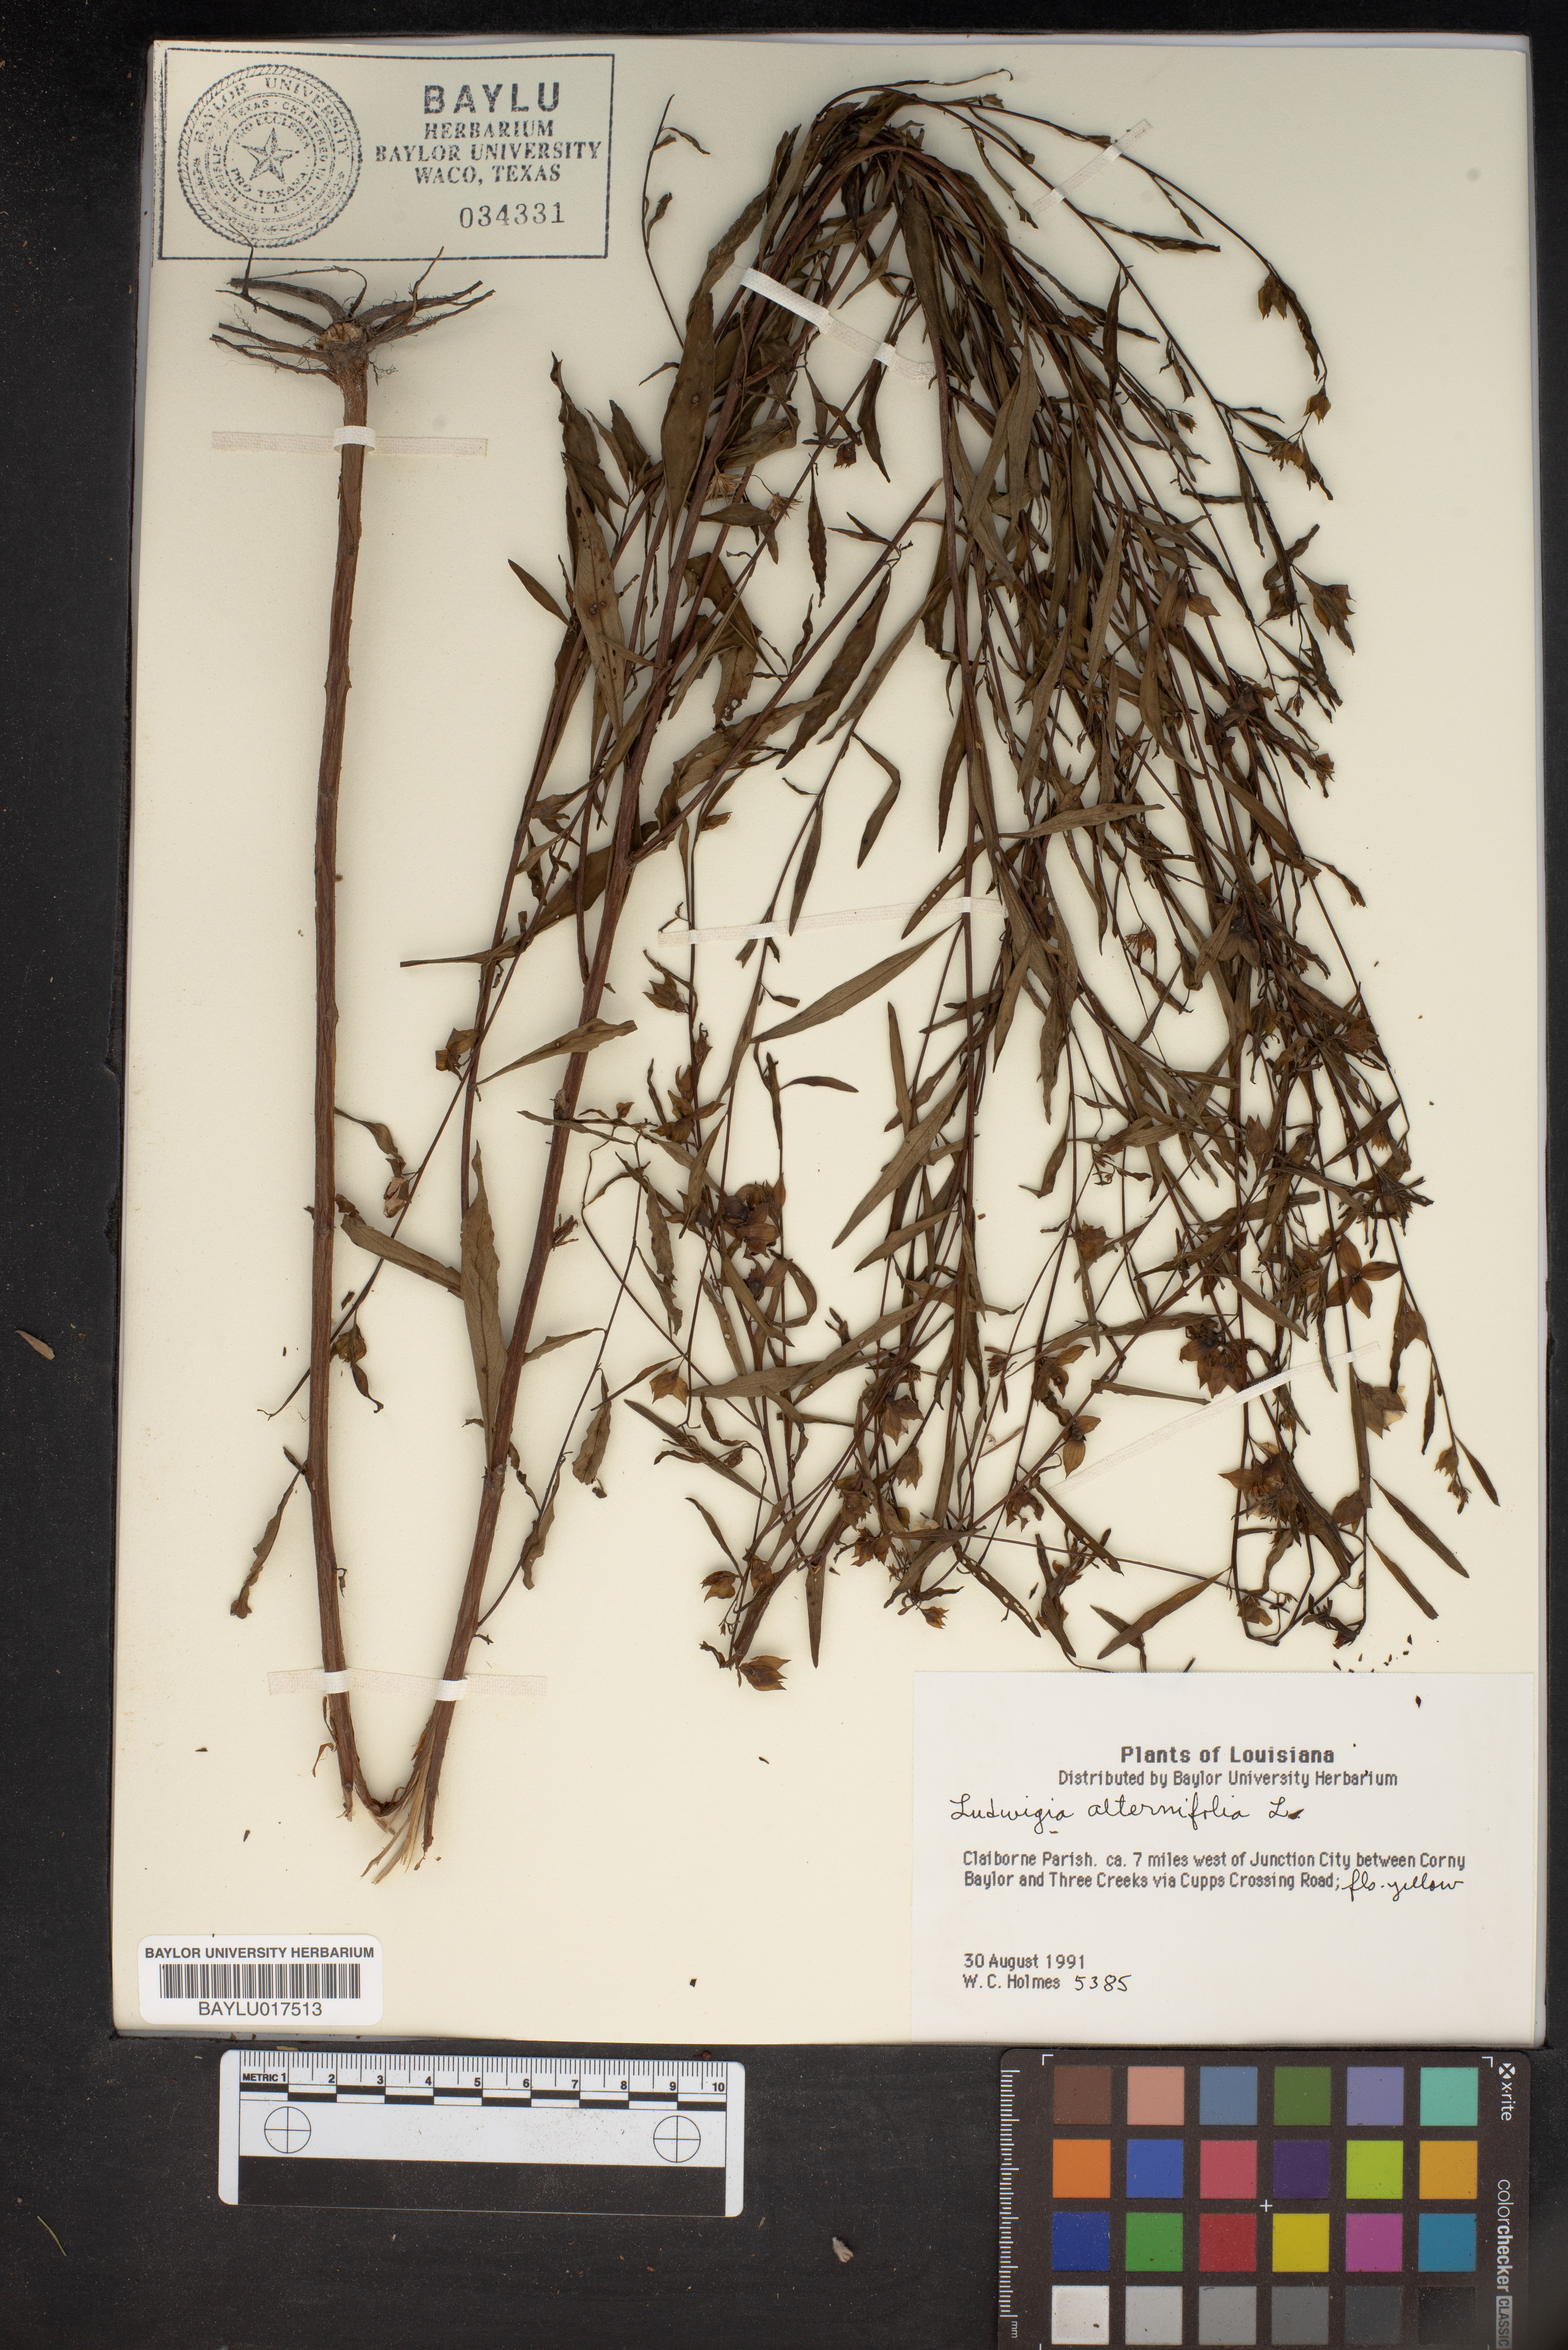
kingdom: Plantae
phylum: Tracheophyta
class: Magnoliopsida
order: Myrtales
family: Onagraceae
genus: Ludwigia
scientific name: Ludwigia alternifolia
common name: Rattlebox
